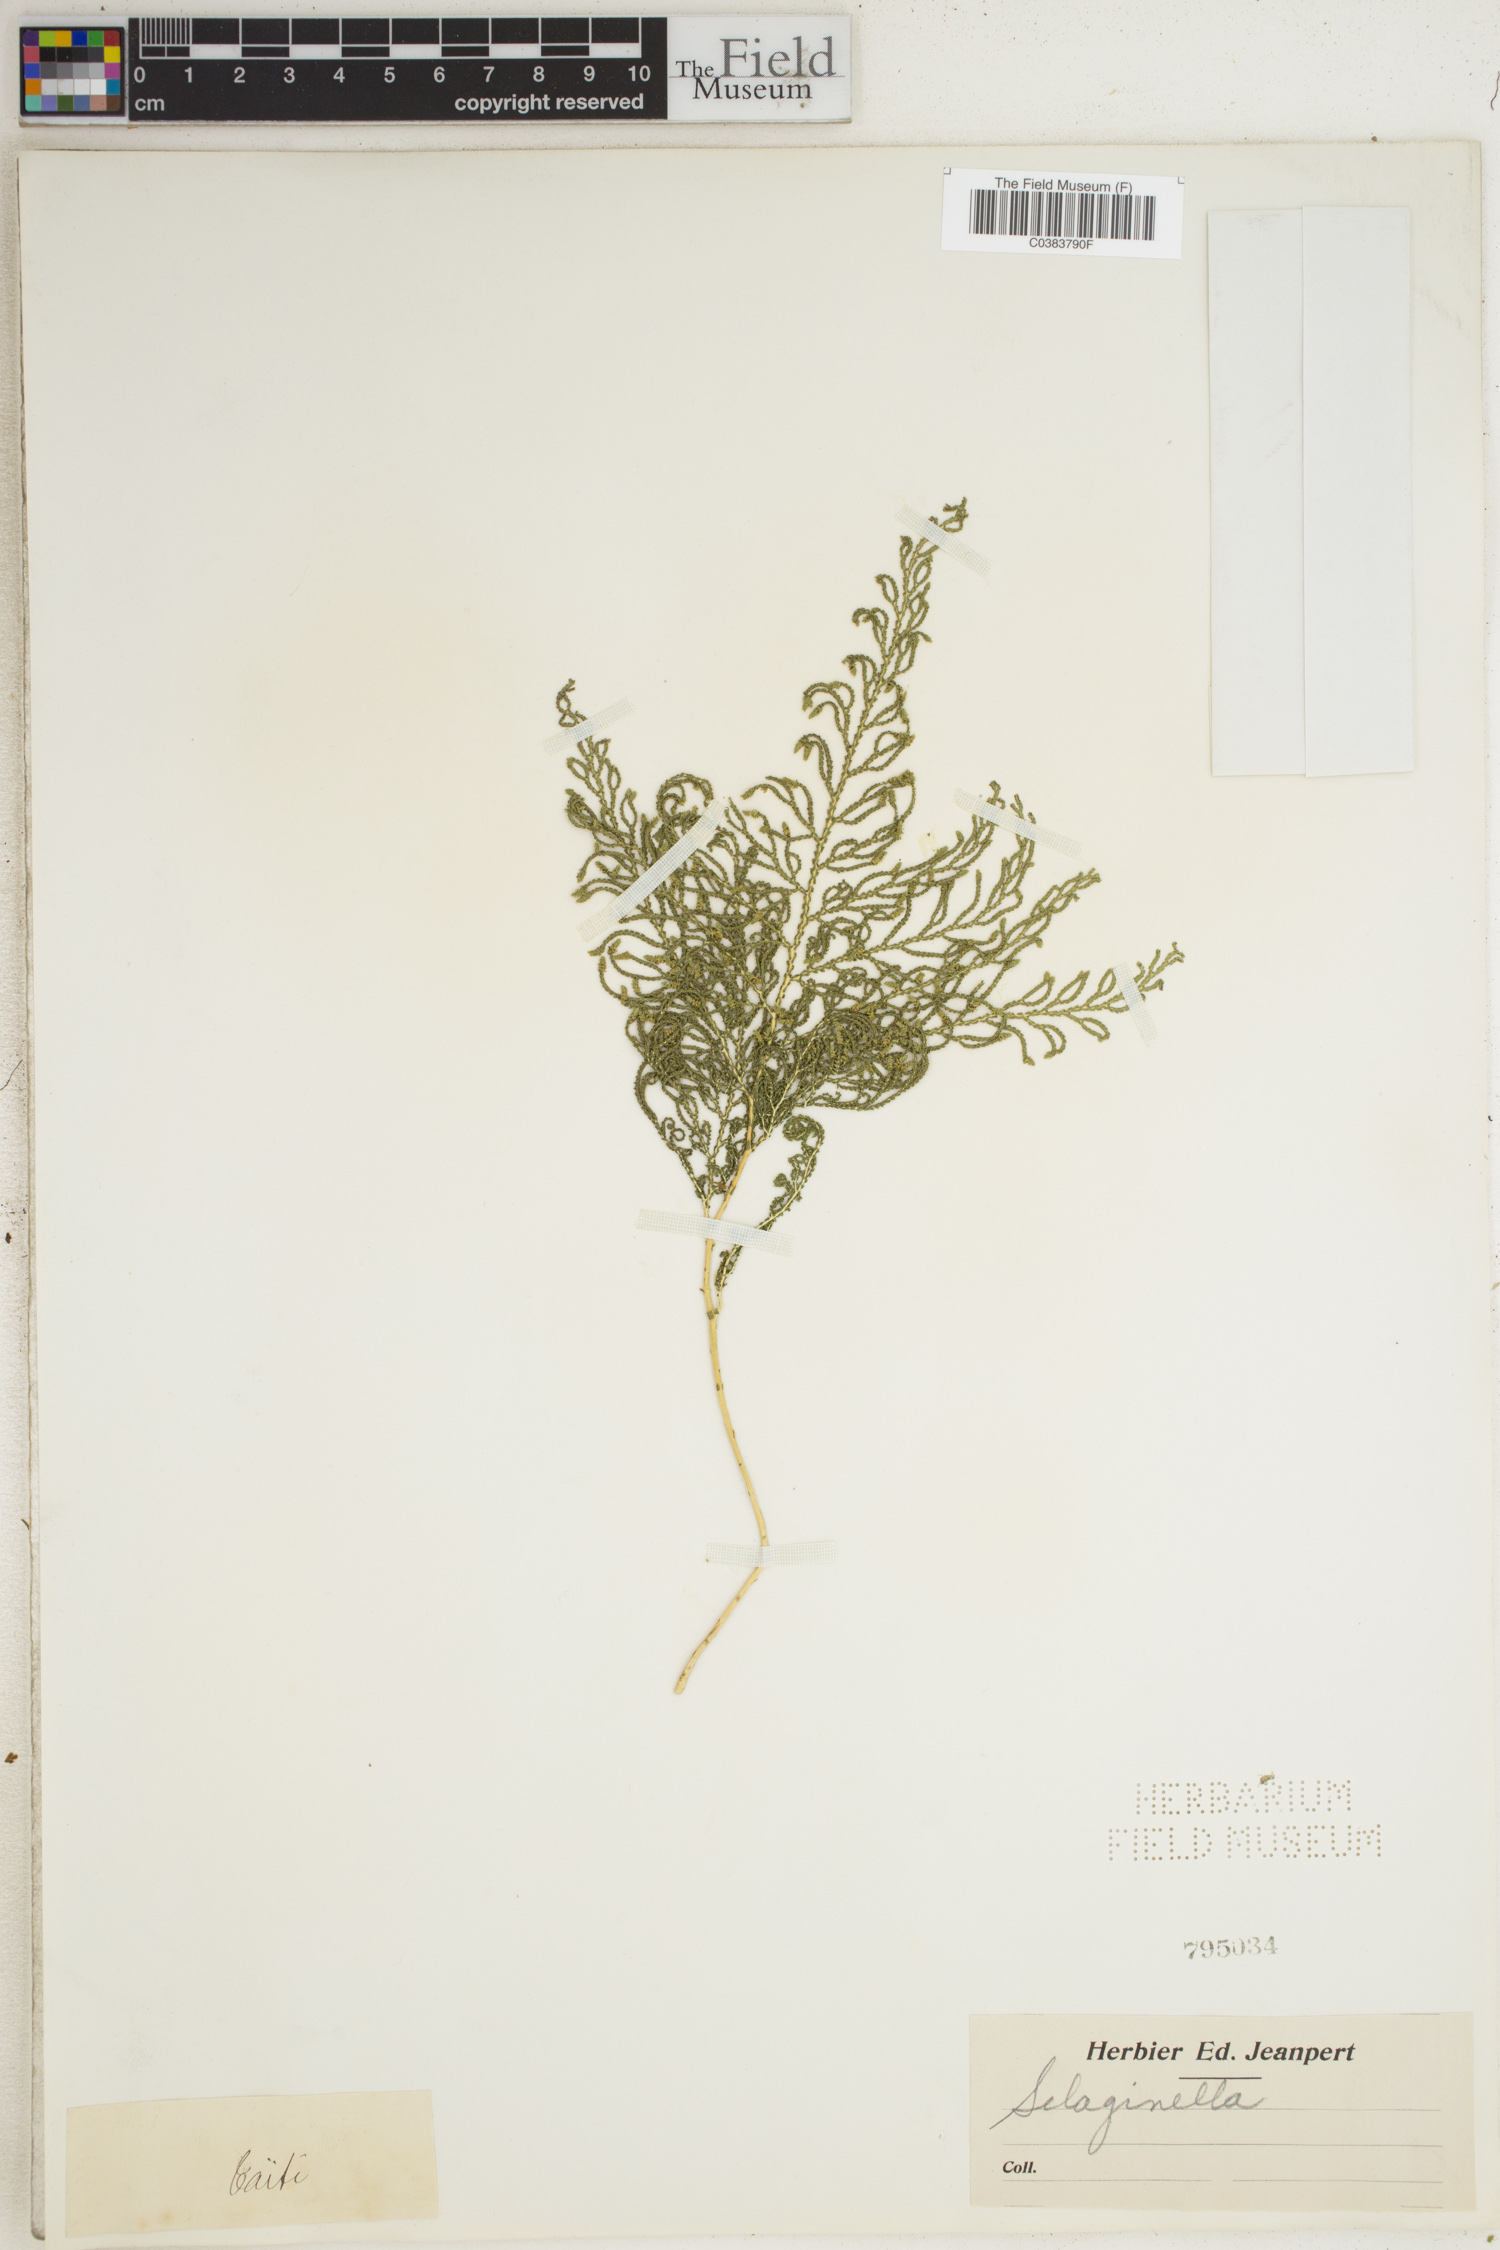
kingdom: Plantae
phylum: Tracheophyta
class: Lycopodiopsida
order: Selaginellales
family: Selaginellaceae
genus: Selaginella
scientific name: Selaginella
